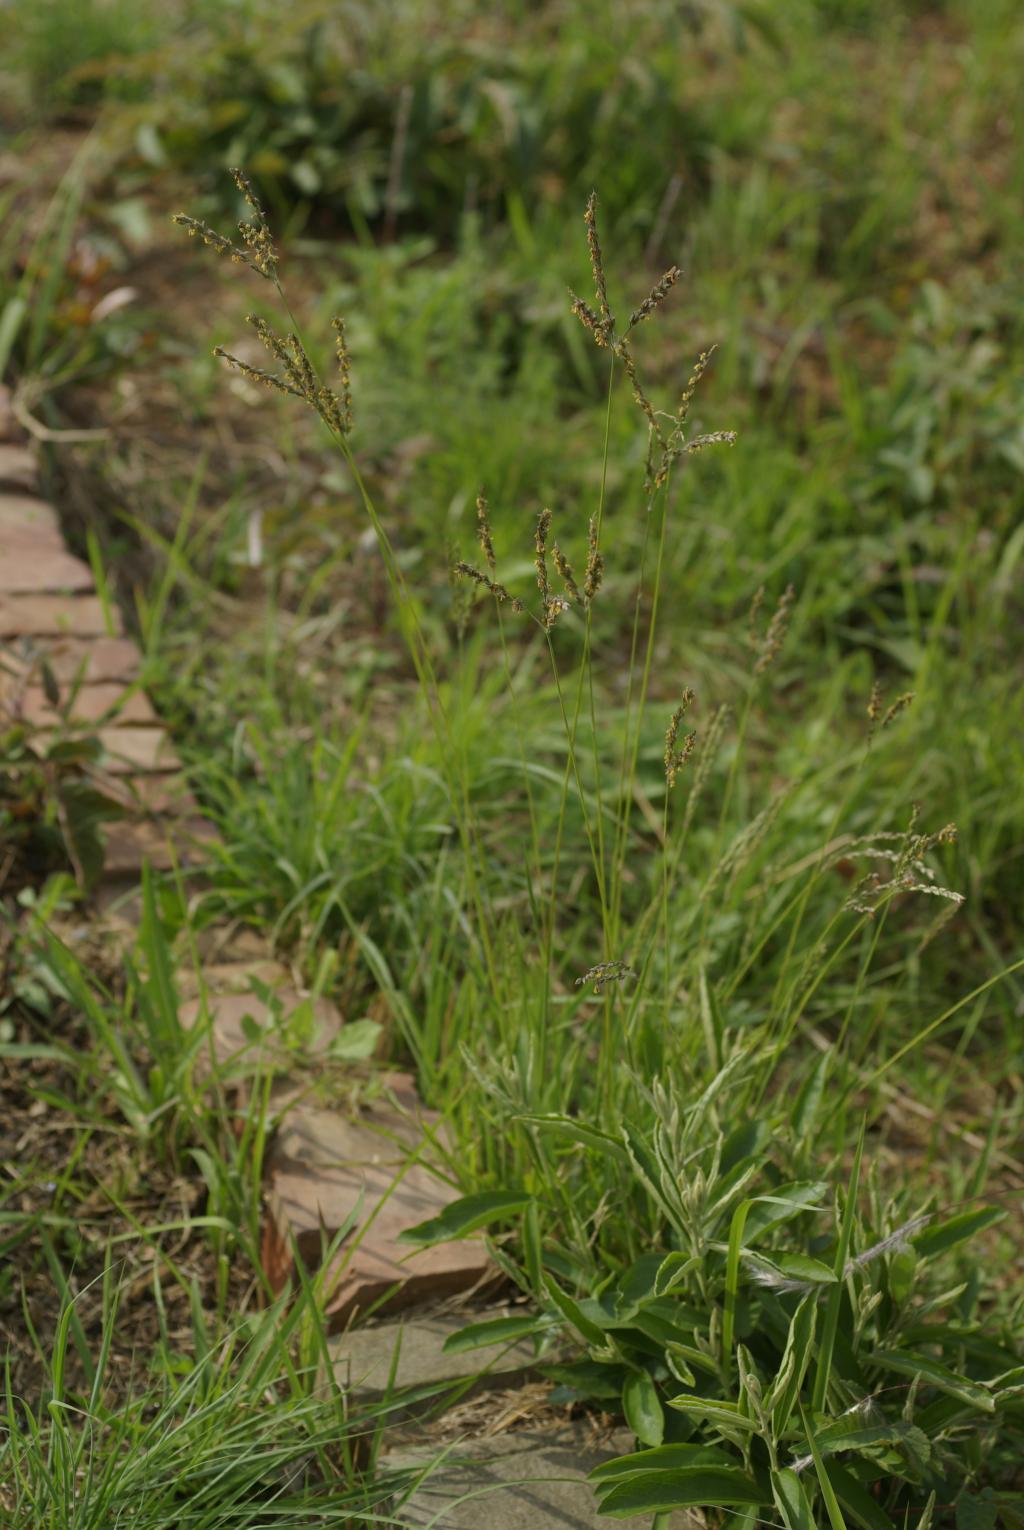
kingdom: Plantae
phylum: Tracheophyta
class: Liliopsida
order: Poales
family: Poaceae
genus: Alloteropsis
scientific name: Alloteropsis semialata
